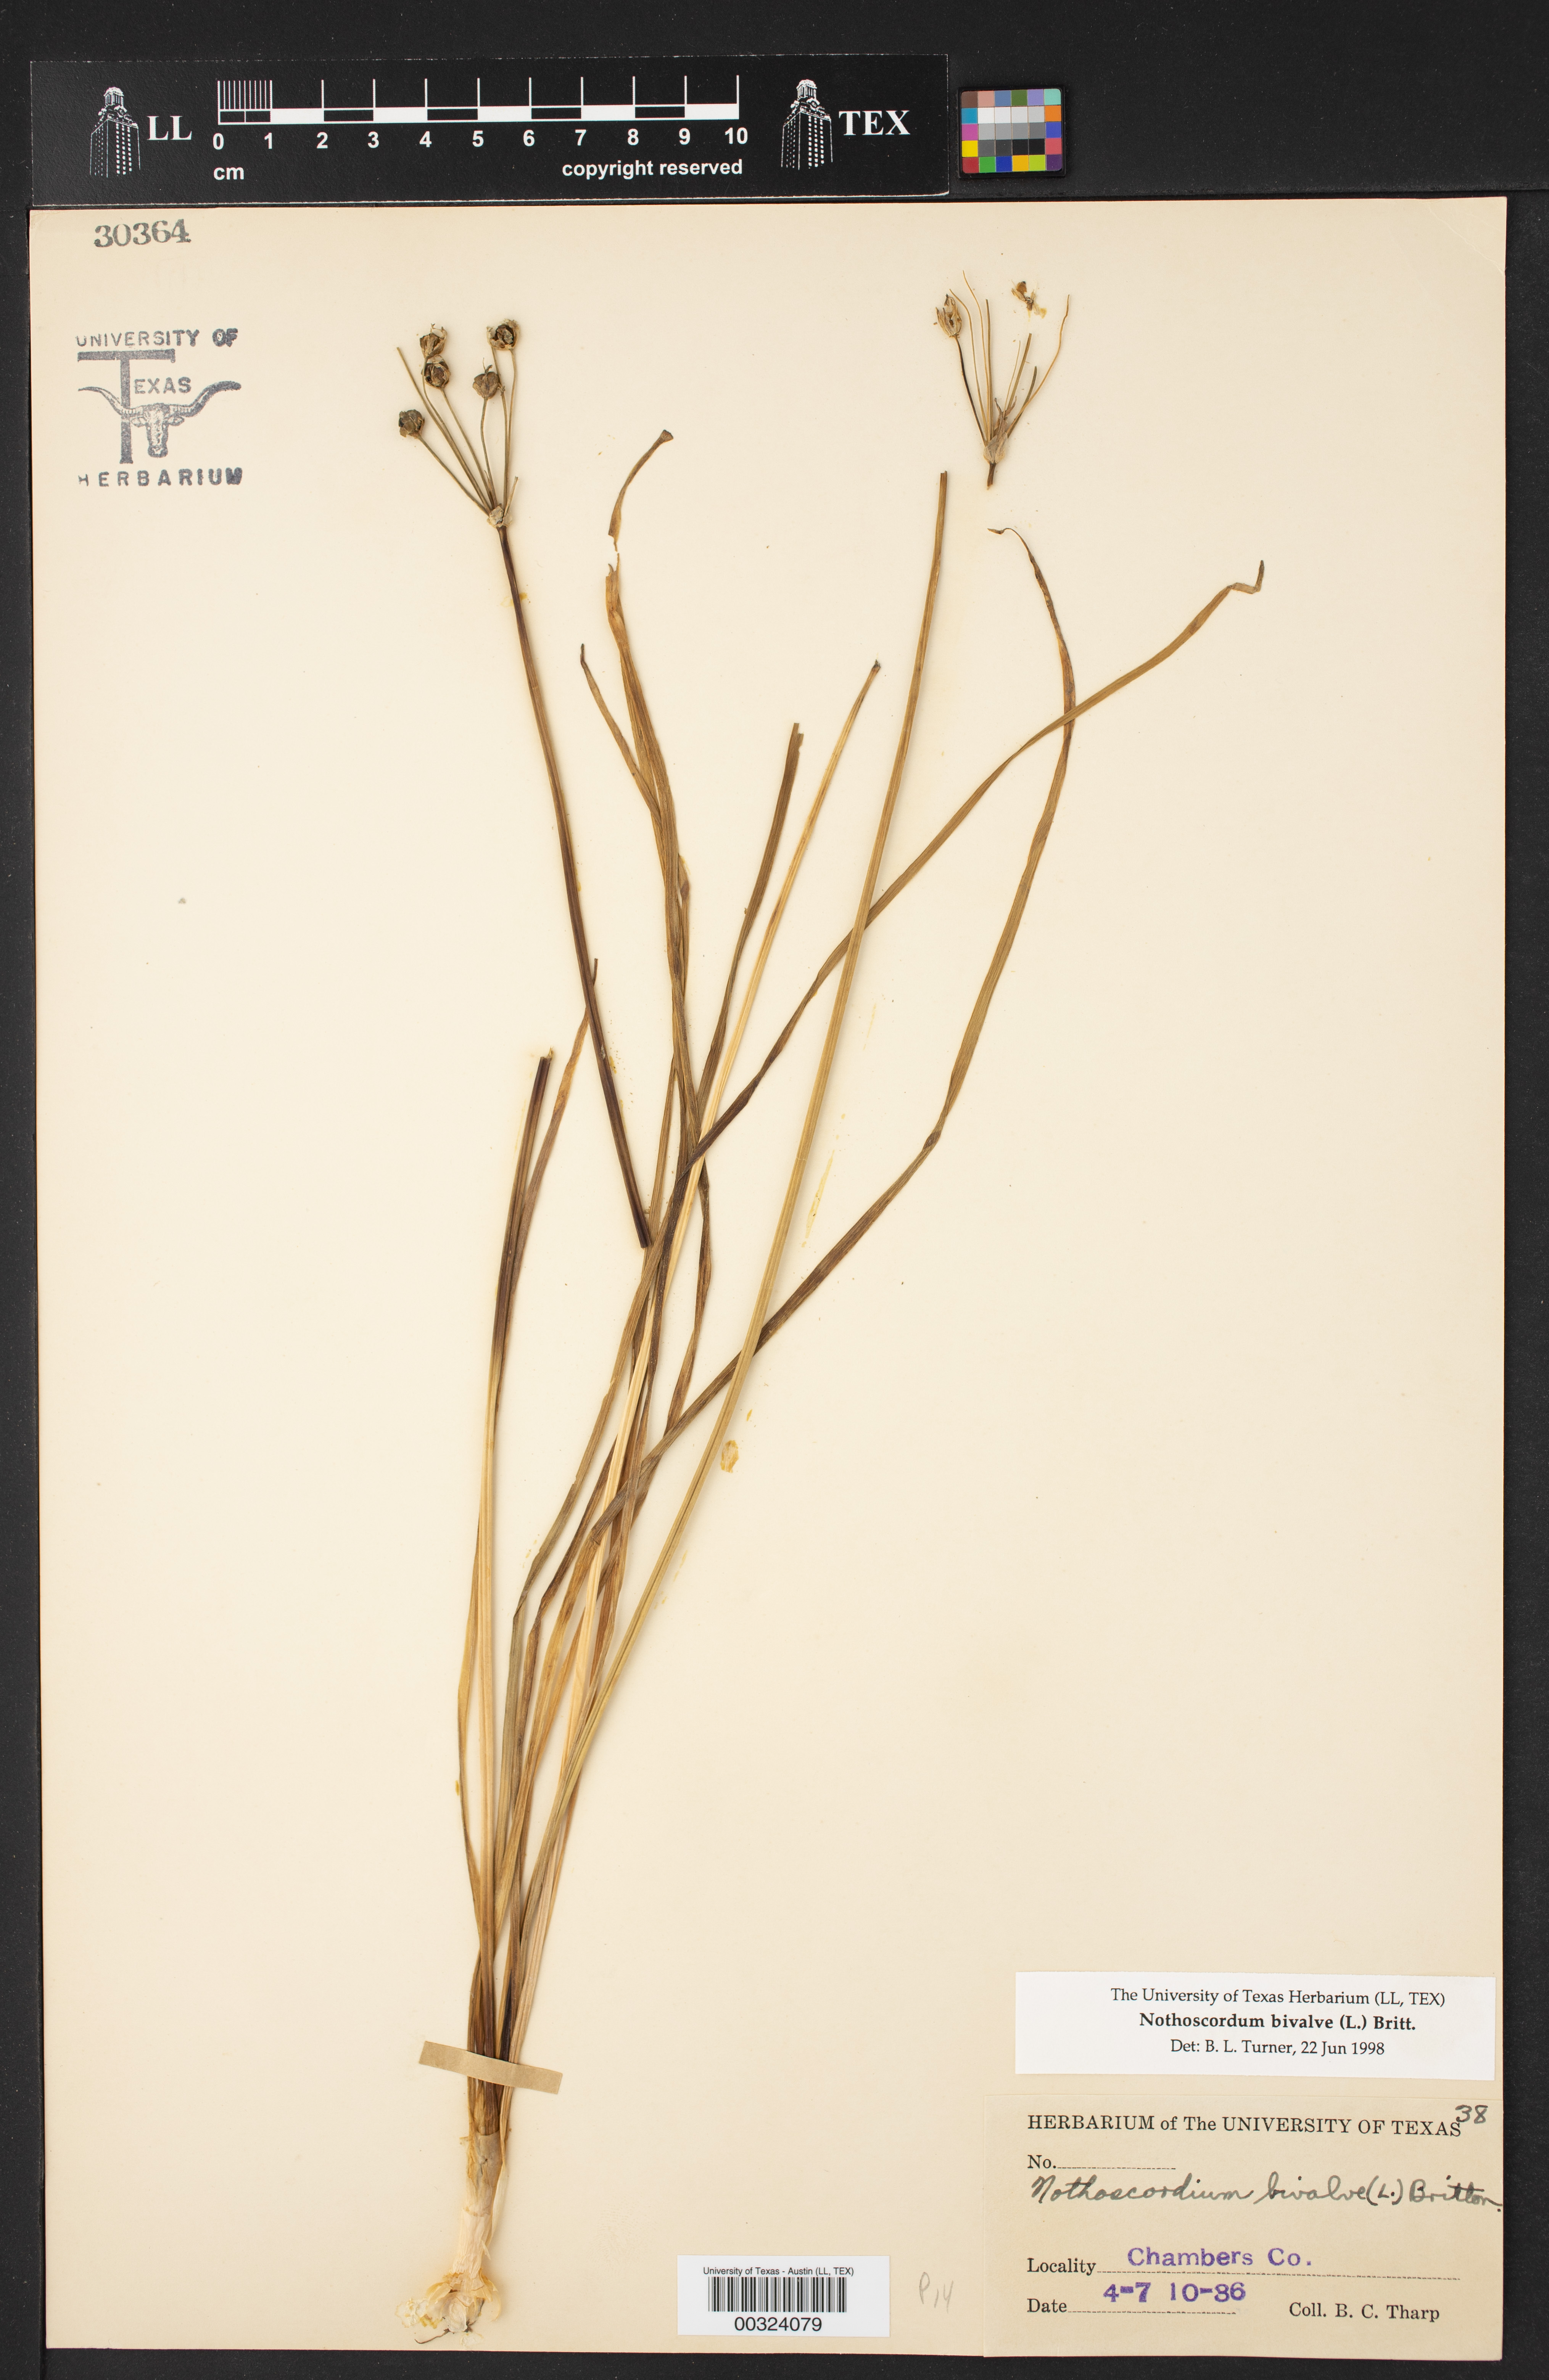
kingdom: Plantae
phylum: Tracheophyta
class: Liliopsida
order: Asparagales
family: Amaryllidaceae
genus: Nothoscordum
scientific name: Nothoscordum bivalve
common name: Crow-poison
